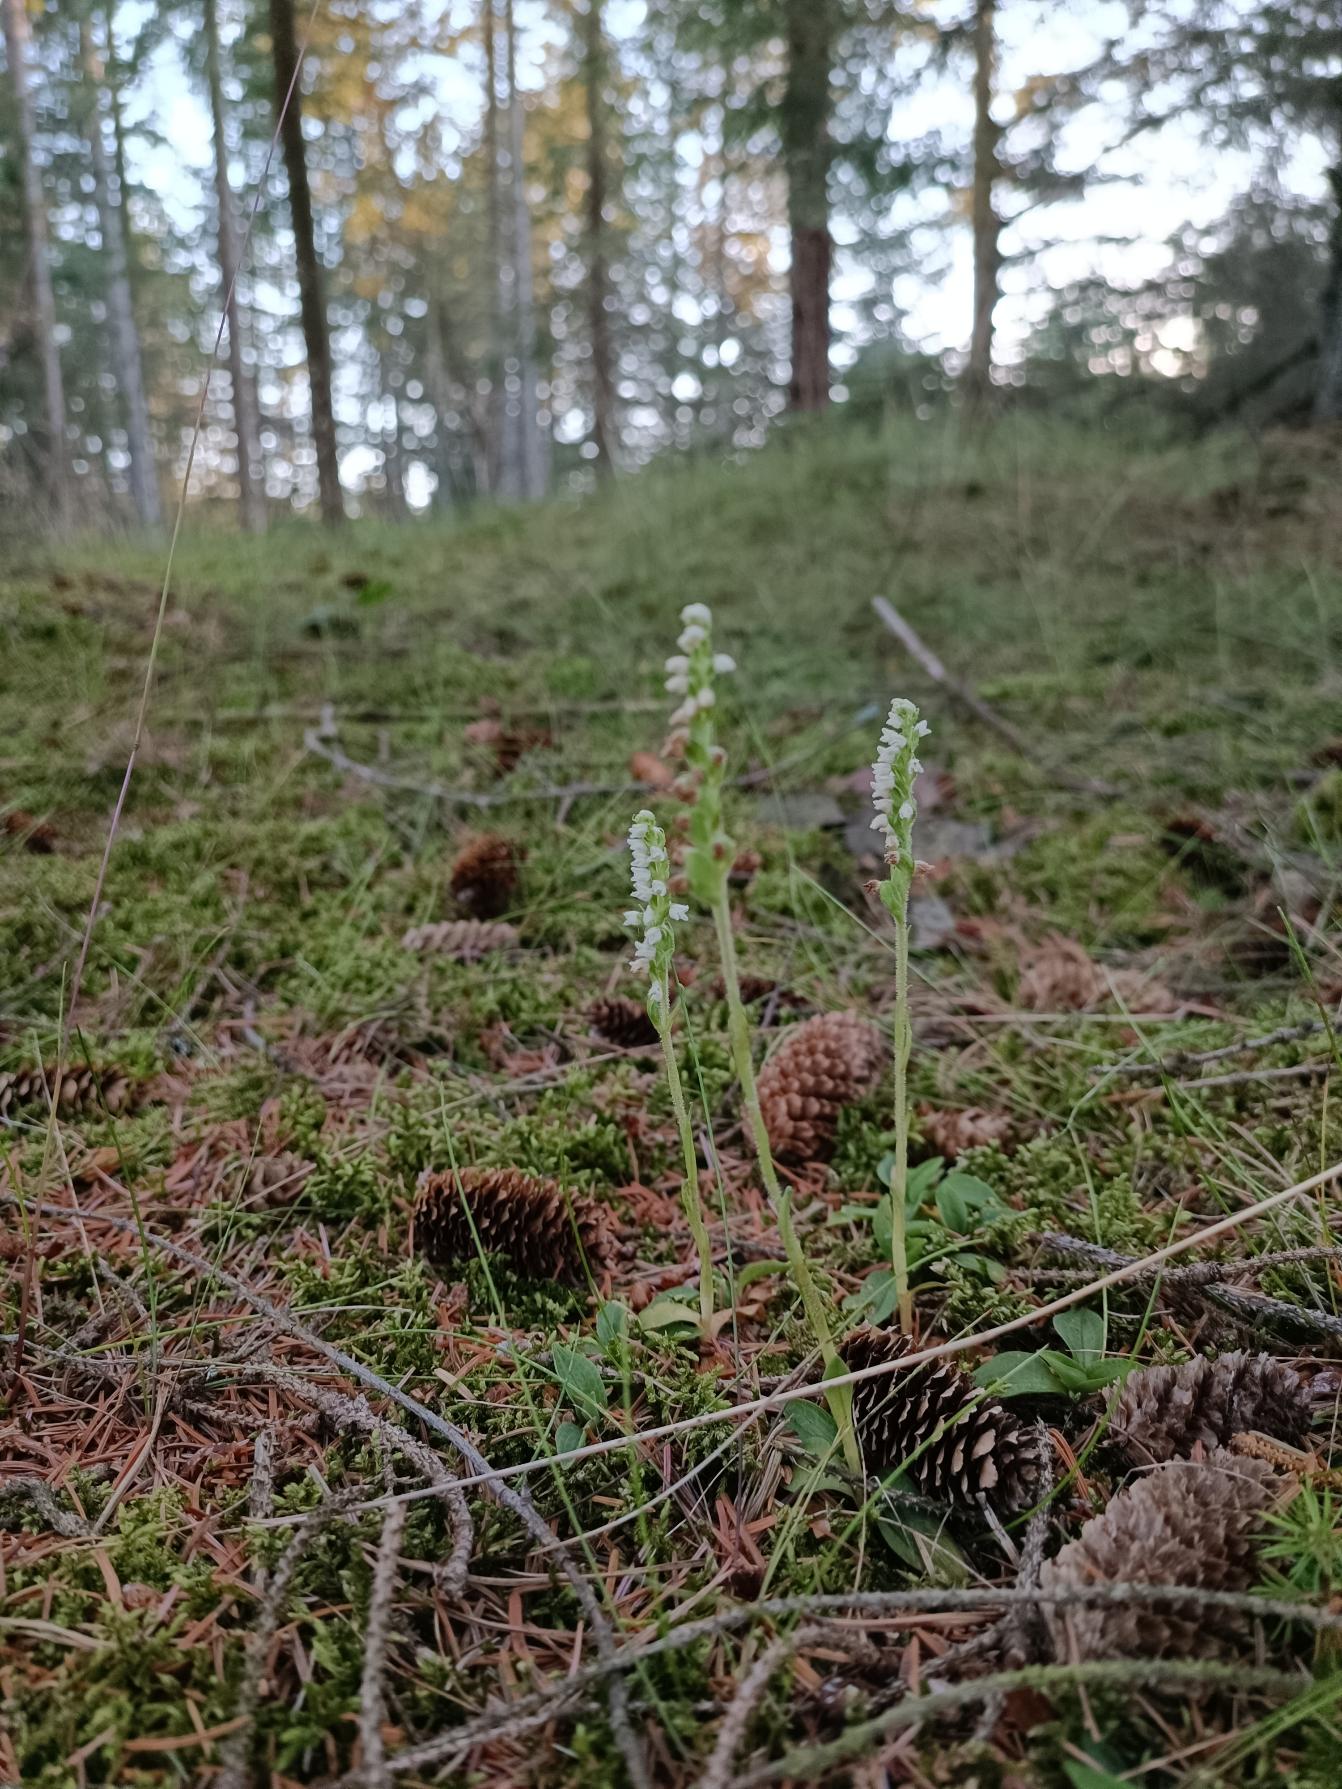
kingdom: Plantae
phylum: Tracheophyta
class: Liliopsida
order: Asparagales
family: Orchidaceae
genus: Goodyera
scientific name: Goodyera repens
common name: Knærod
